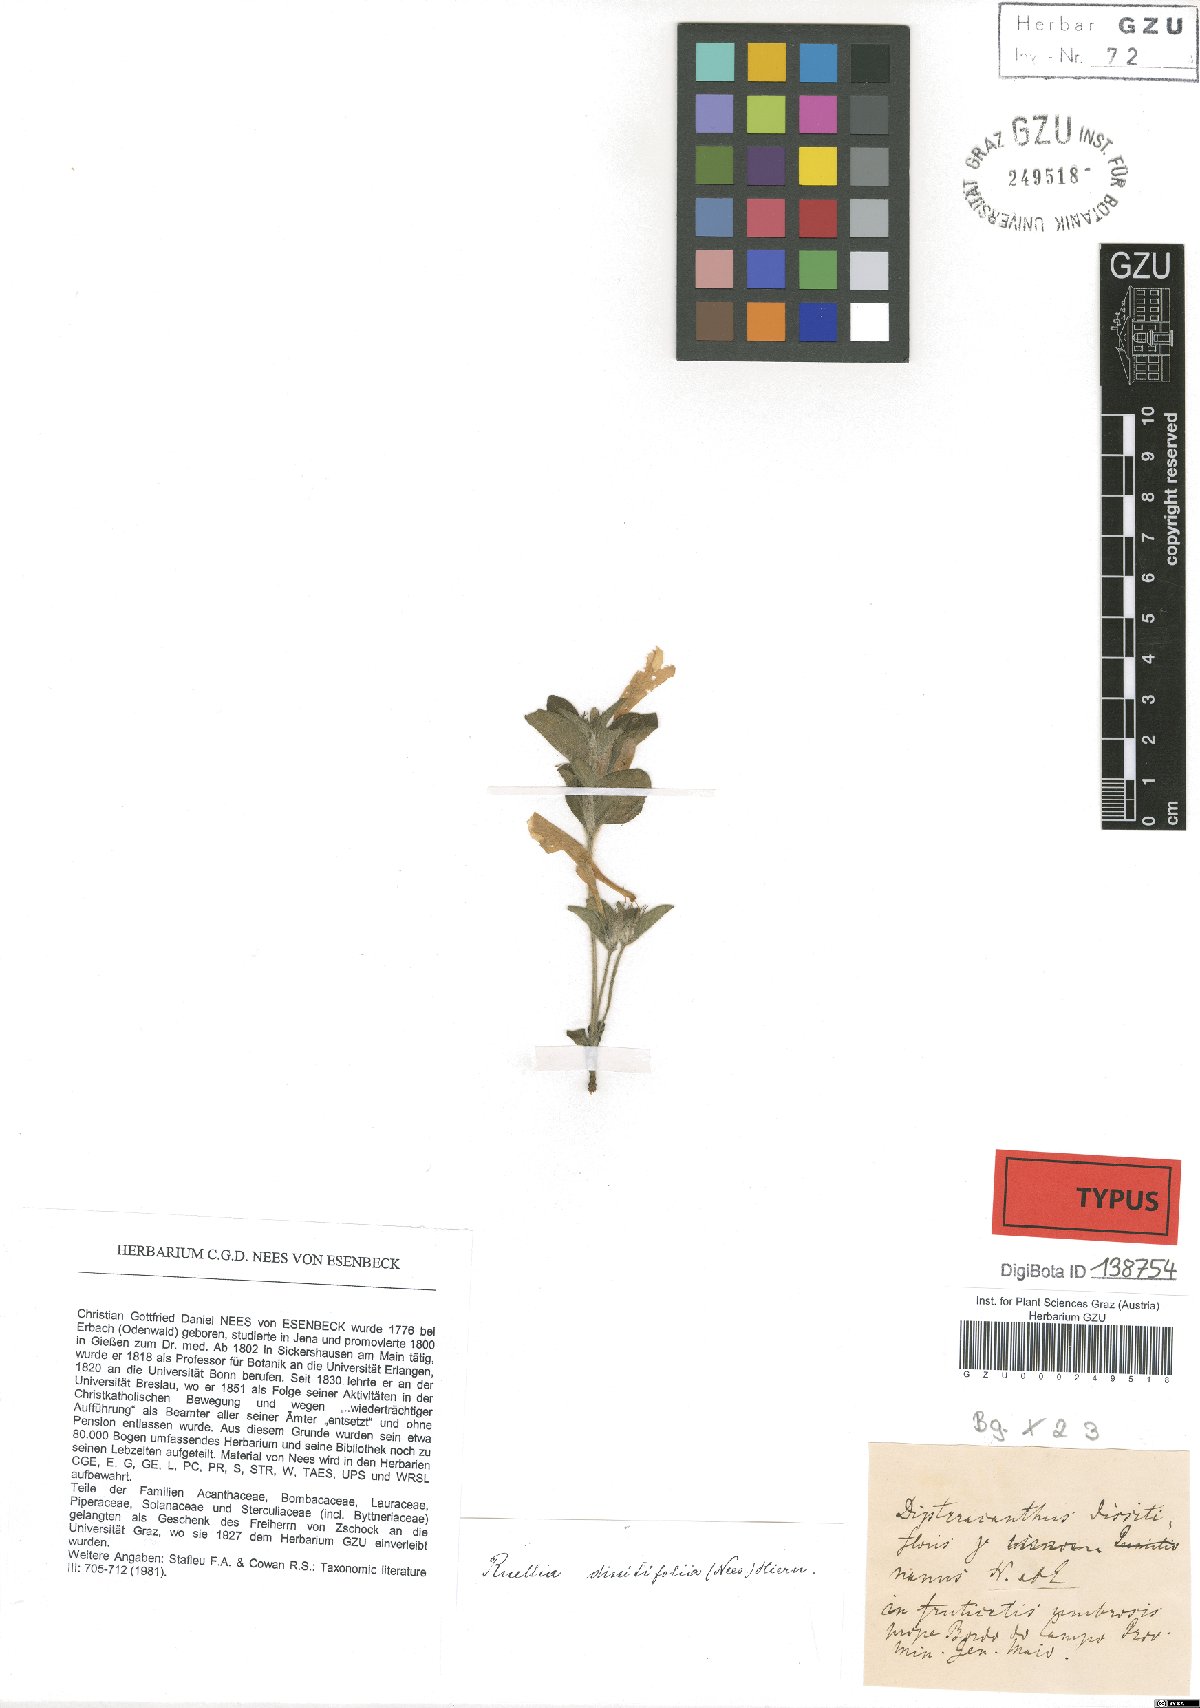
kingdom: Plantae
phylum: Tracheophyta
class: Magnoliopsida
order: Lamiales
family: Acanthaceae
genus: Ruellia
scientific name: Ruellia dissitifolia
